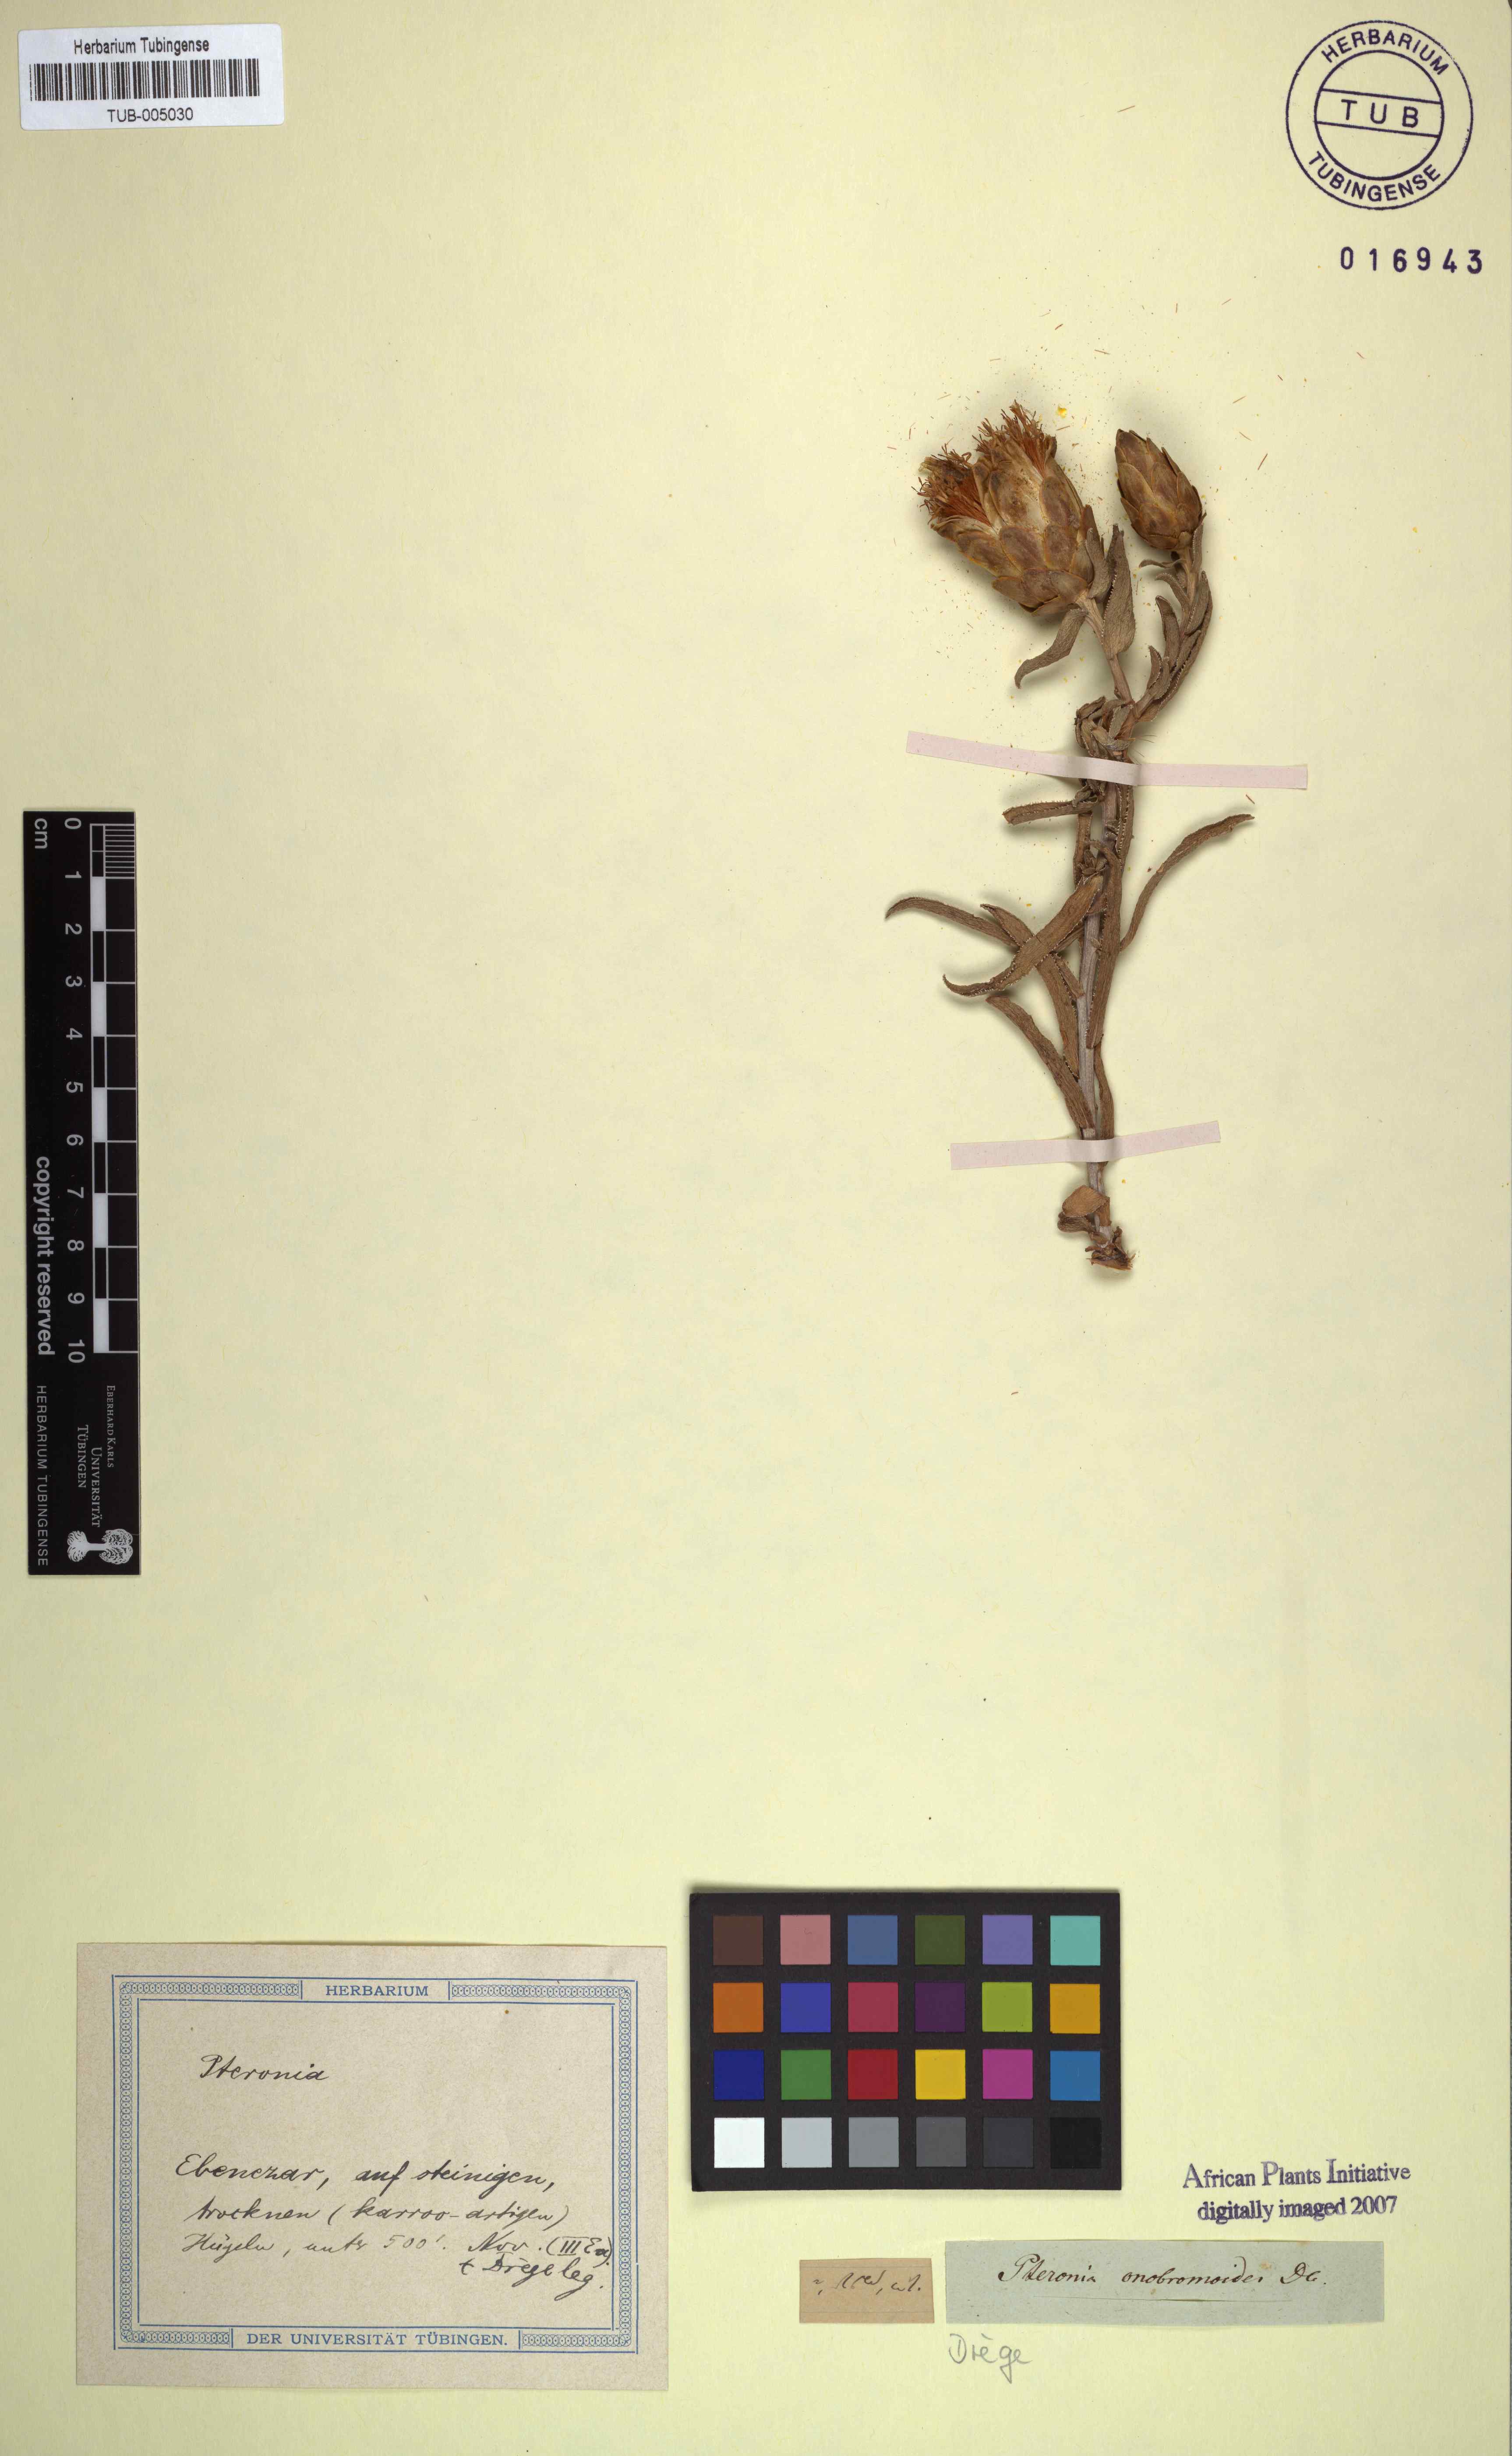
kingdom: Plantae
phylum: Tracheophyta
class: Magnoliopsida
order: Asterales
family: Asteraceae
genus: Pteronia
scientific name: Pteronia onobromoides
